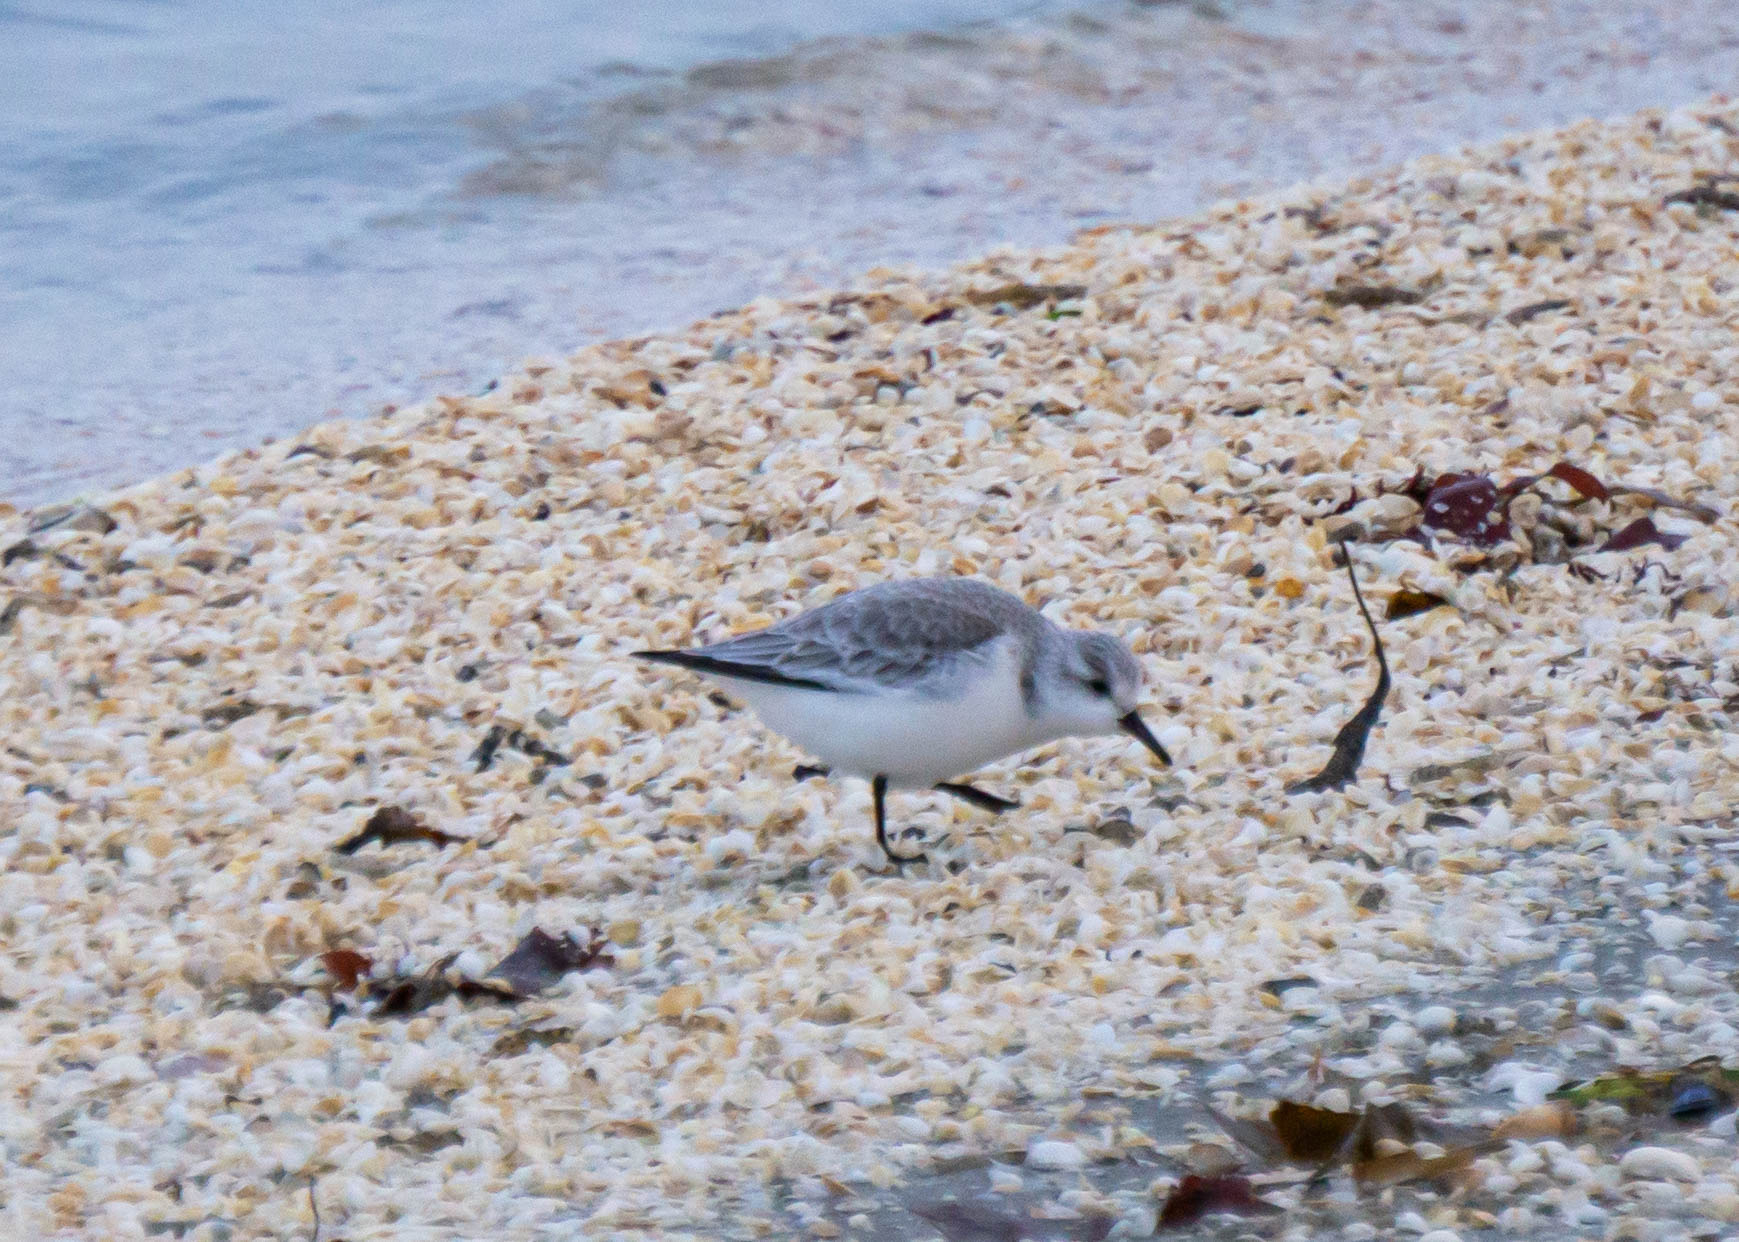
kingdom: Animalia
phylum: Chordata
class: Aves
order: Charadriiformes
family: Scolopacidae
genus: Calidris
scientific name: Calidris alba
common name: Sandløber
